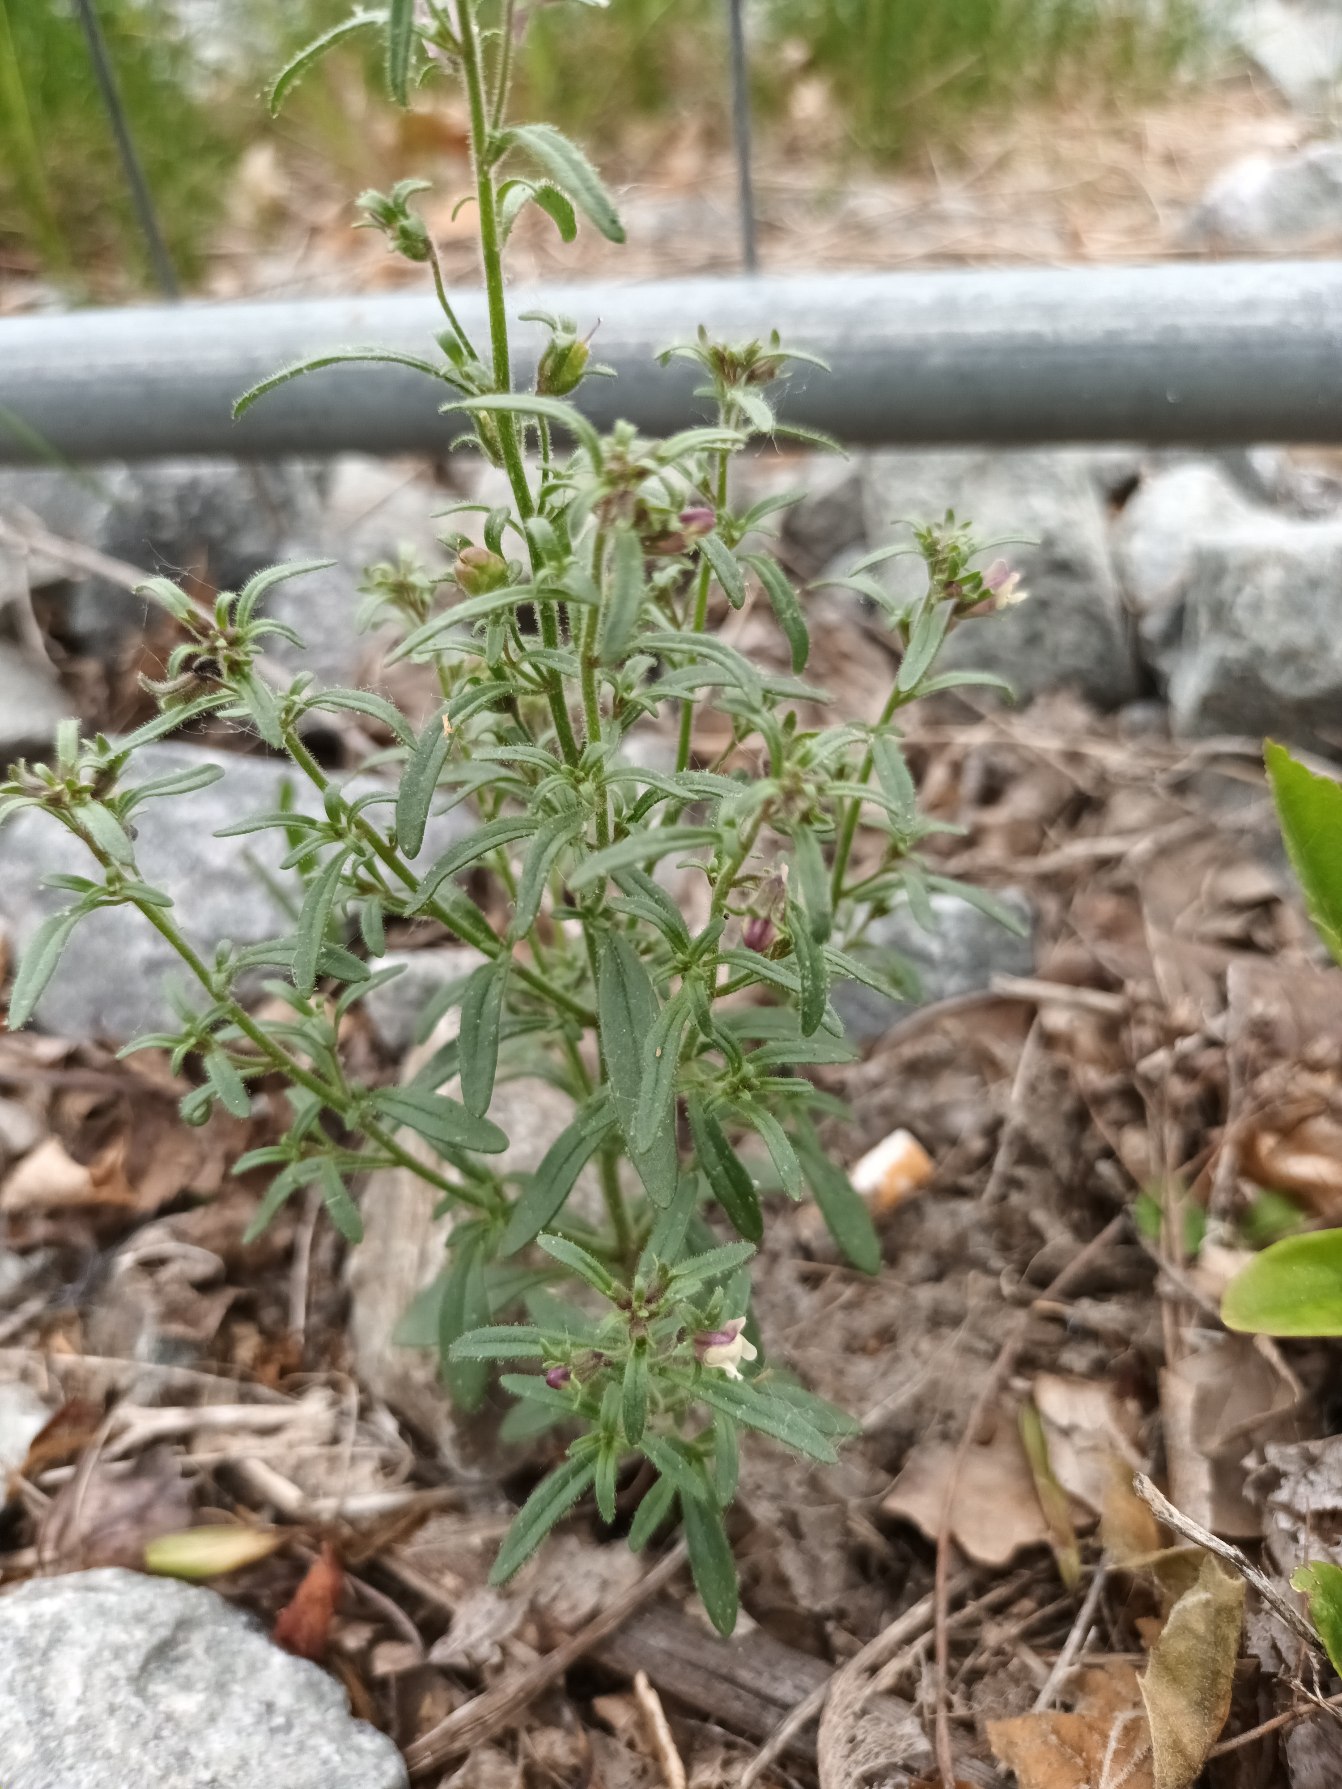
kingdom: Plantae
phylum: Tracheophyta
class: Magnoliopsida
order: Lamiales
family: Plantaginaceae
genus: Chaenorhinum
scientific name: Chaenorhinum minus
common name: Liden torskemund
